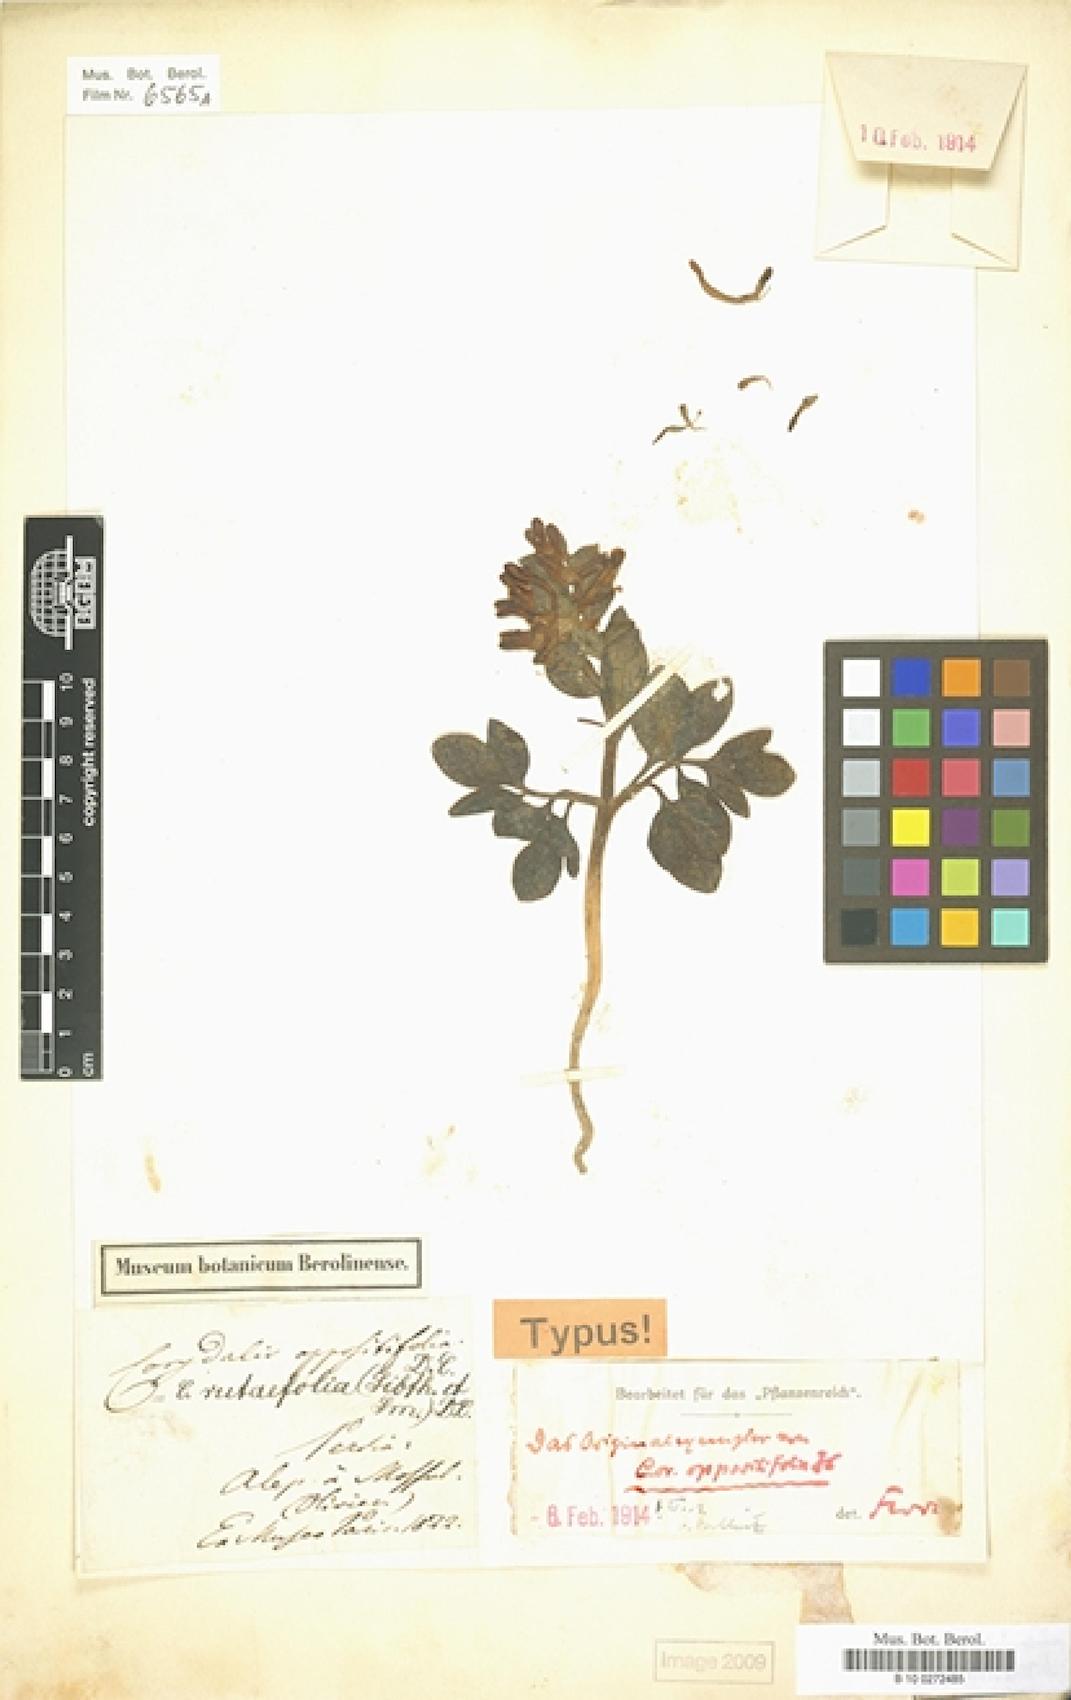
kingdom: Plantae
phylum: Tracheophyta
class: Magnoliopsida
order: Ranunculales
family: Papaveraceae
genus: Corydalis
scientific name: Corydalis oppositifolia
